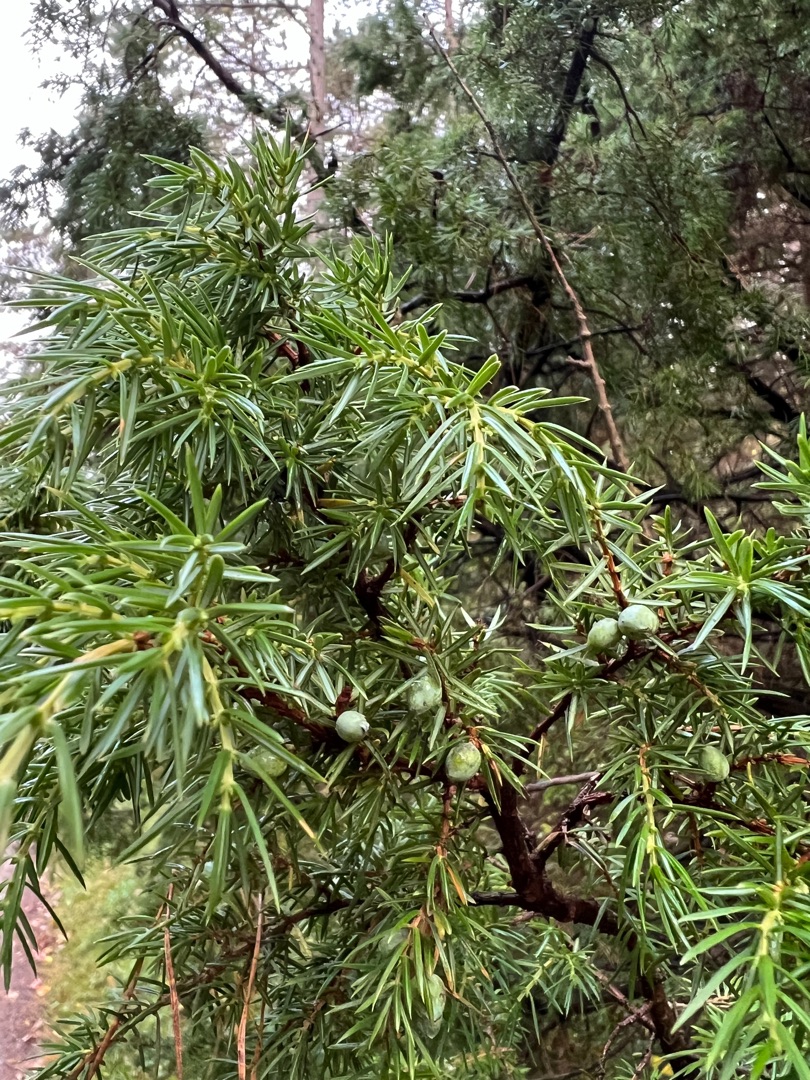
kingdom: Plantae
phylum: Tracheophyta
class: Pinopsida
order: Pinales
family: Cupressaceae
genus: Juniperus
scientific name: Juniperus communis
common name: Almindelig ene
